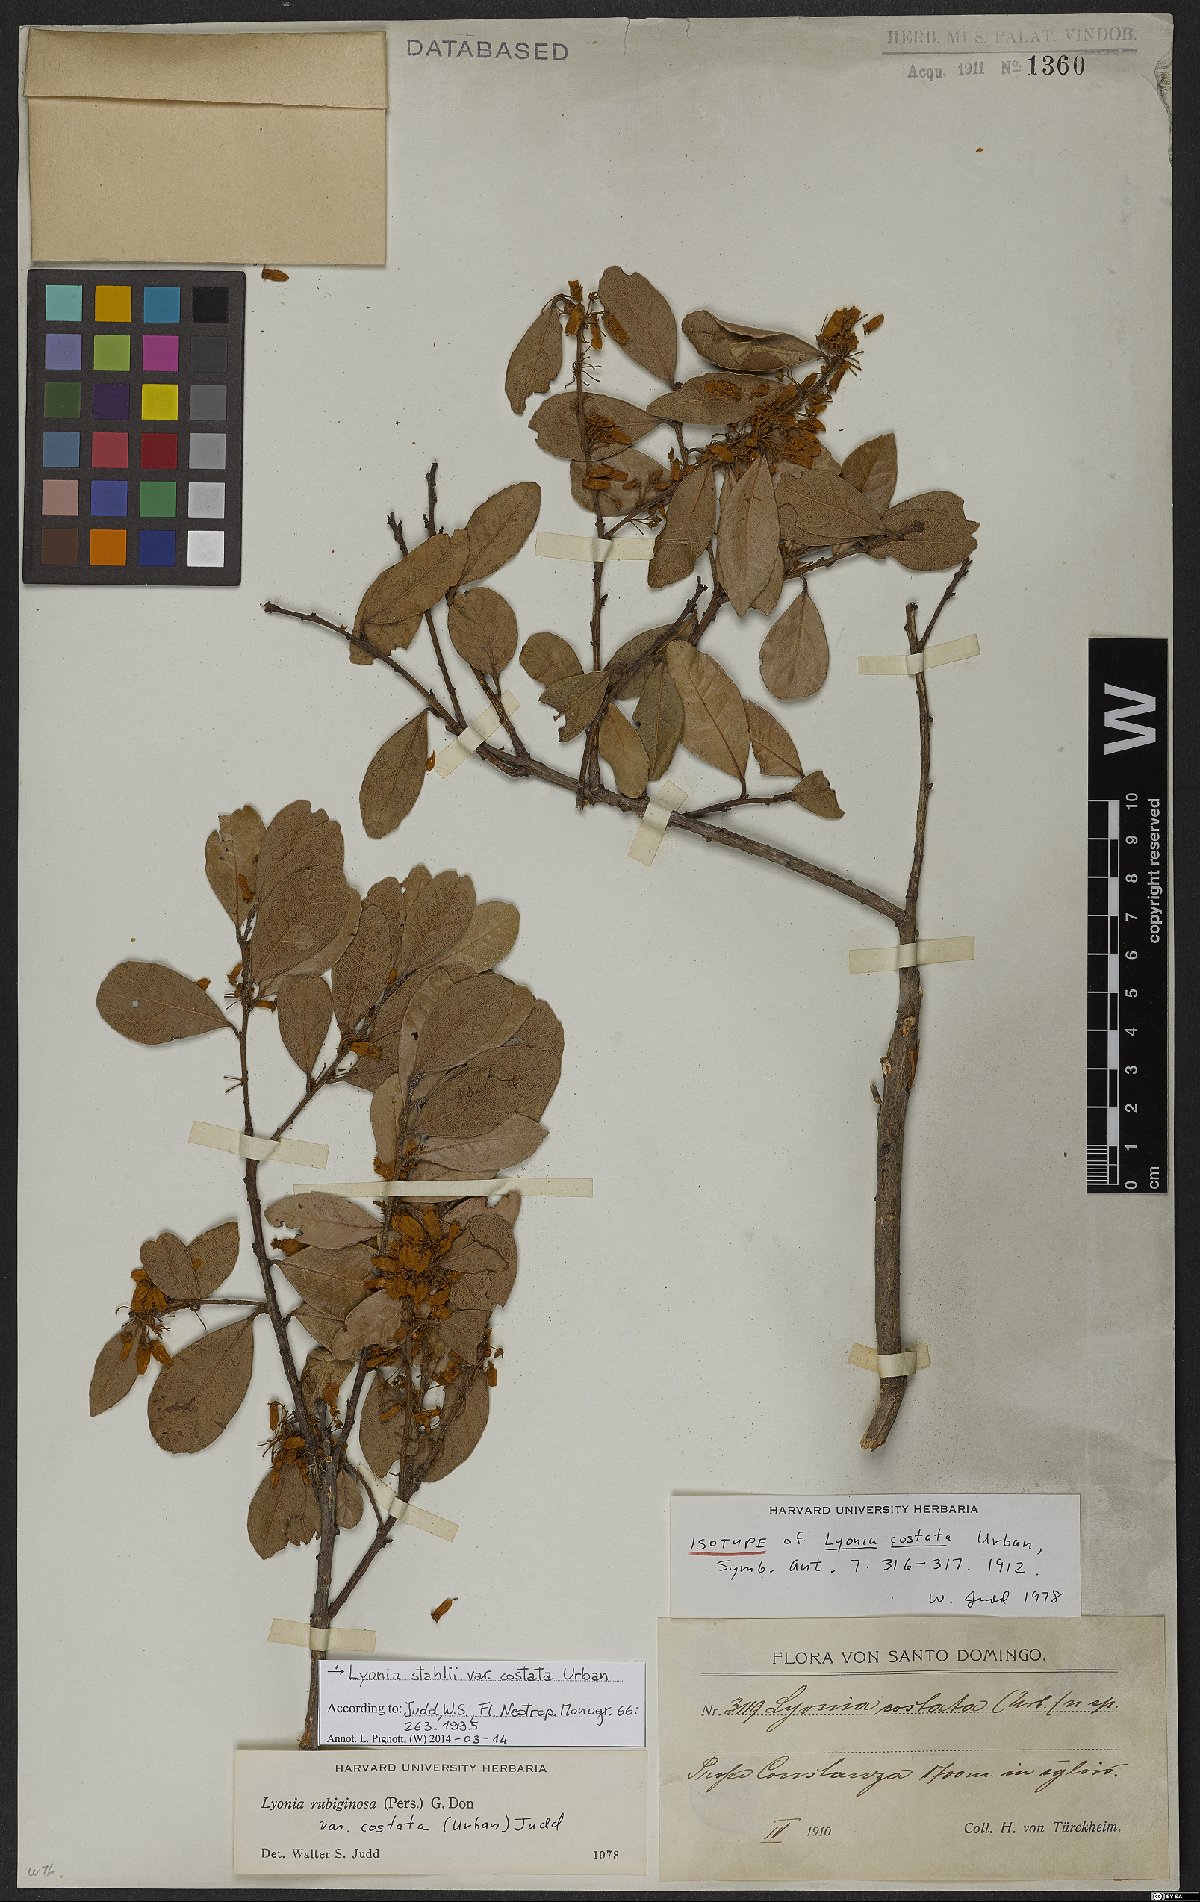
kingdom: Plantae
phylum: Tracheophyta
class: Magnoliopsida
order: Ericales
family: Ericaceae
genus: Lyonia
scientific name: Lyonia stahlii
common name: Stahl's staggerbush
